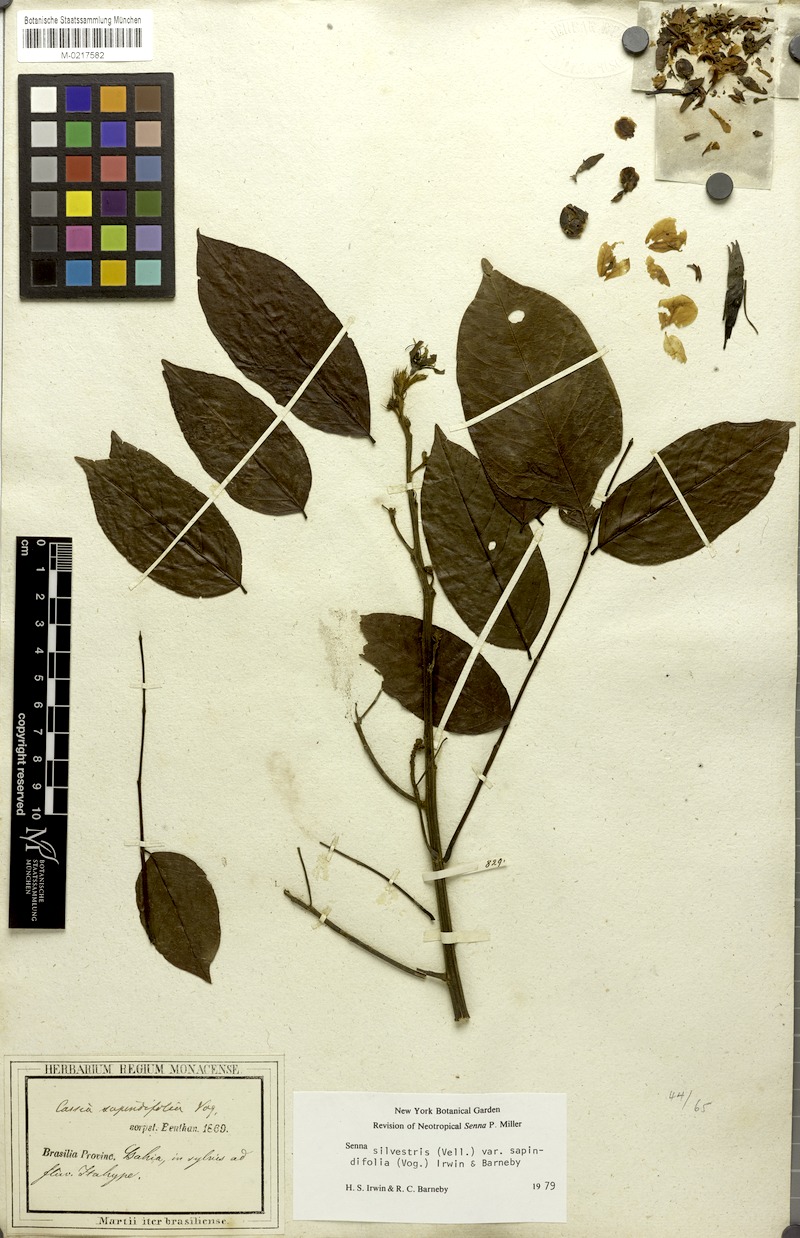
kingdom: Plantae
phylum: Tracheophyta
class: Magnoliopsida
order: Fabales
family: Fabaceae
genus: Senna
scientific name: Senna silvestris
